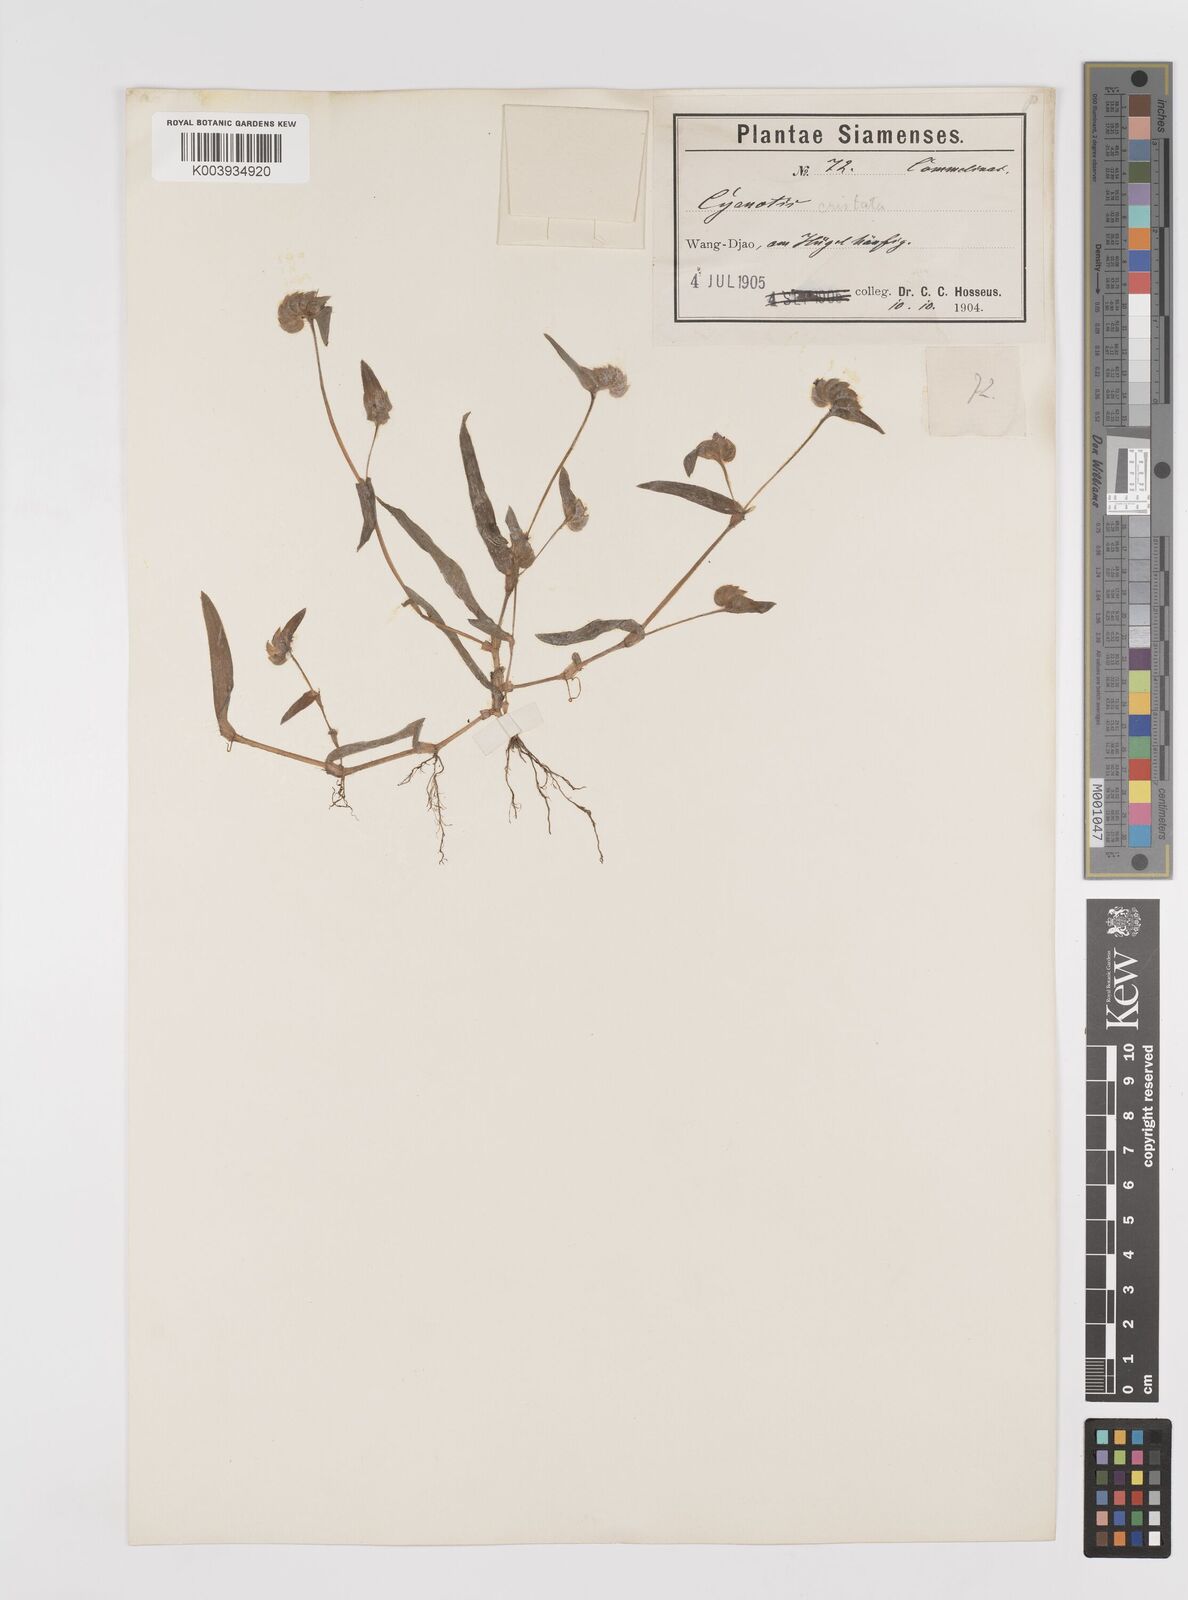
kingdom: Plantae
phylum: Tracheophyta
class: Liliopsida
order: Commelinales
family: Commelinaceae
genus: Cyanotis
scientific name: Cyanotis cristata
